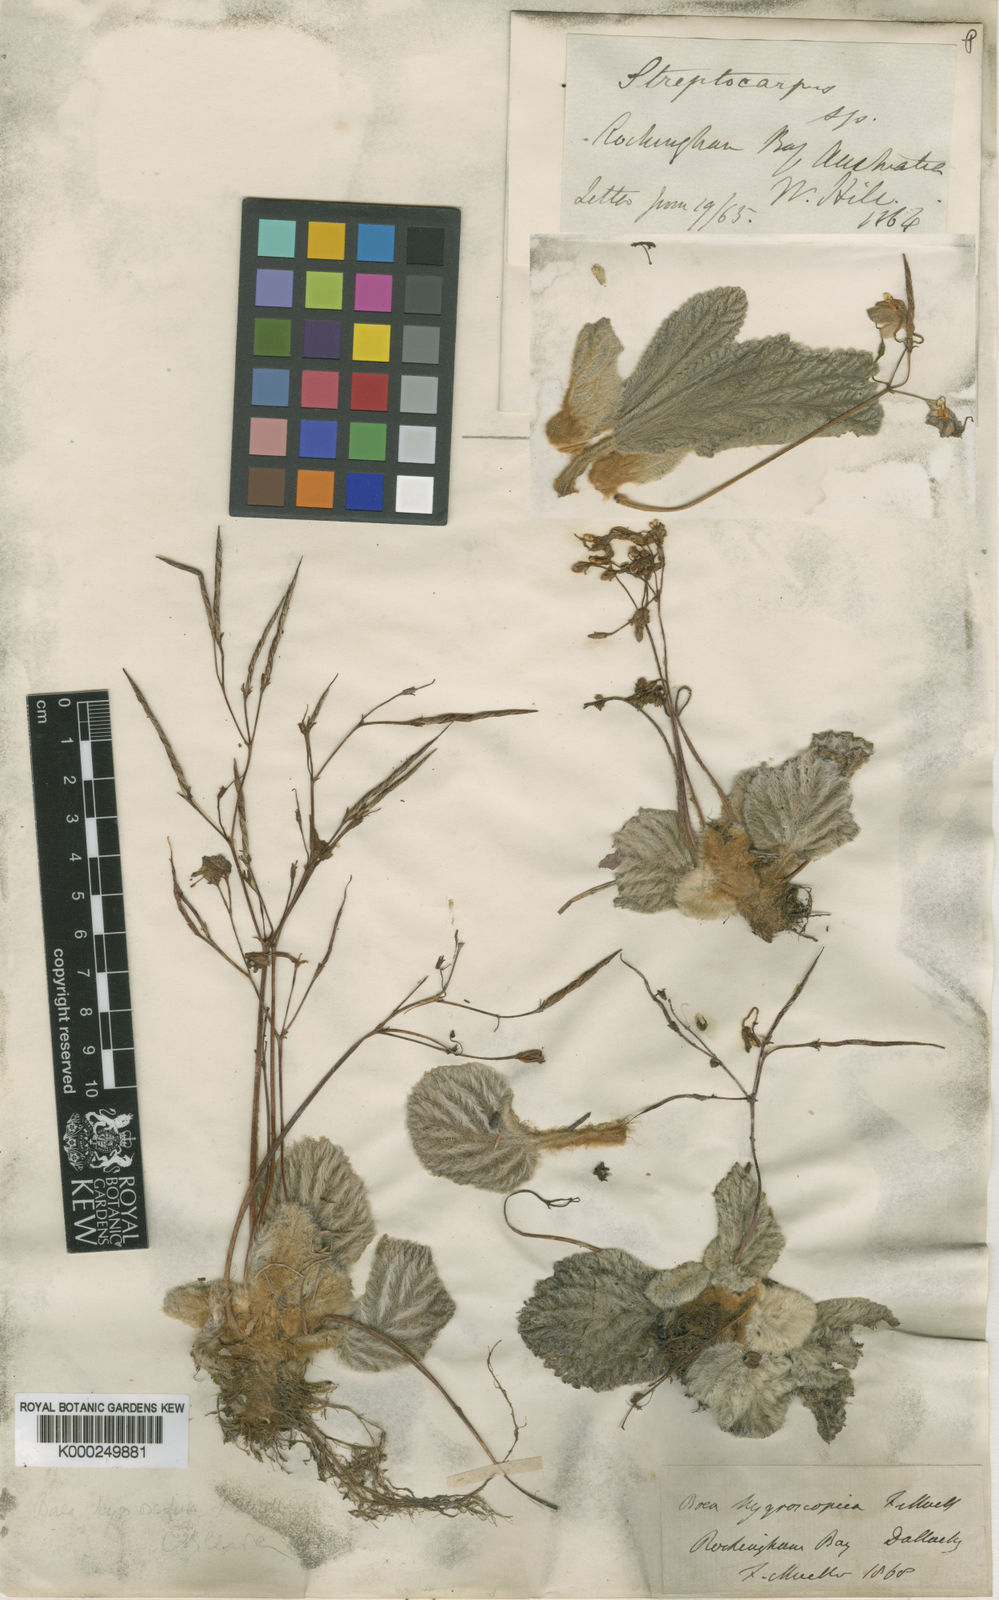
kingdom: Plantae
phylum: Tracheophyta
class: Magnoliopsida
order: Lamiales
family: Gesneriaceae
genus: Boea
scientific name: Boea hygroscopica
